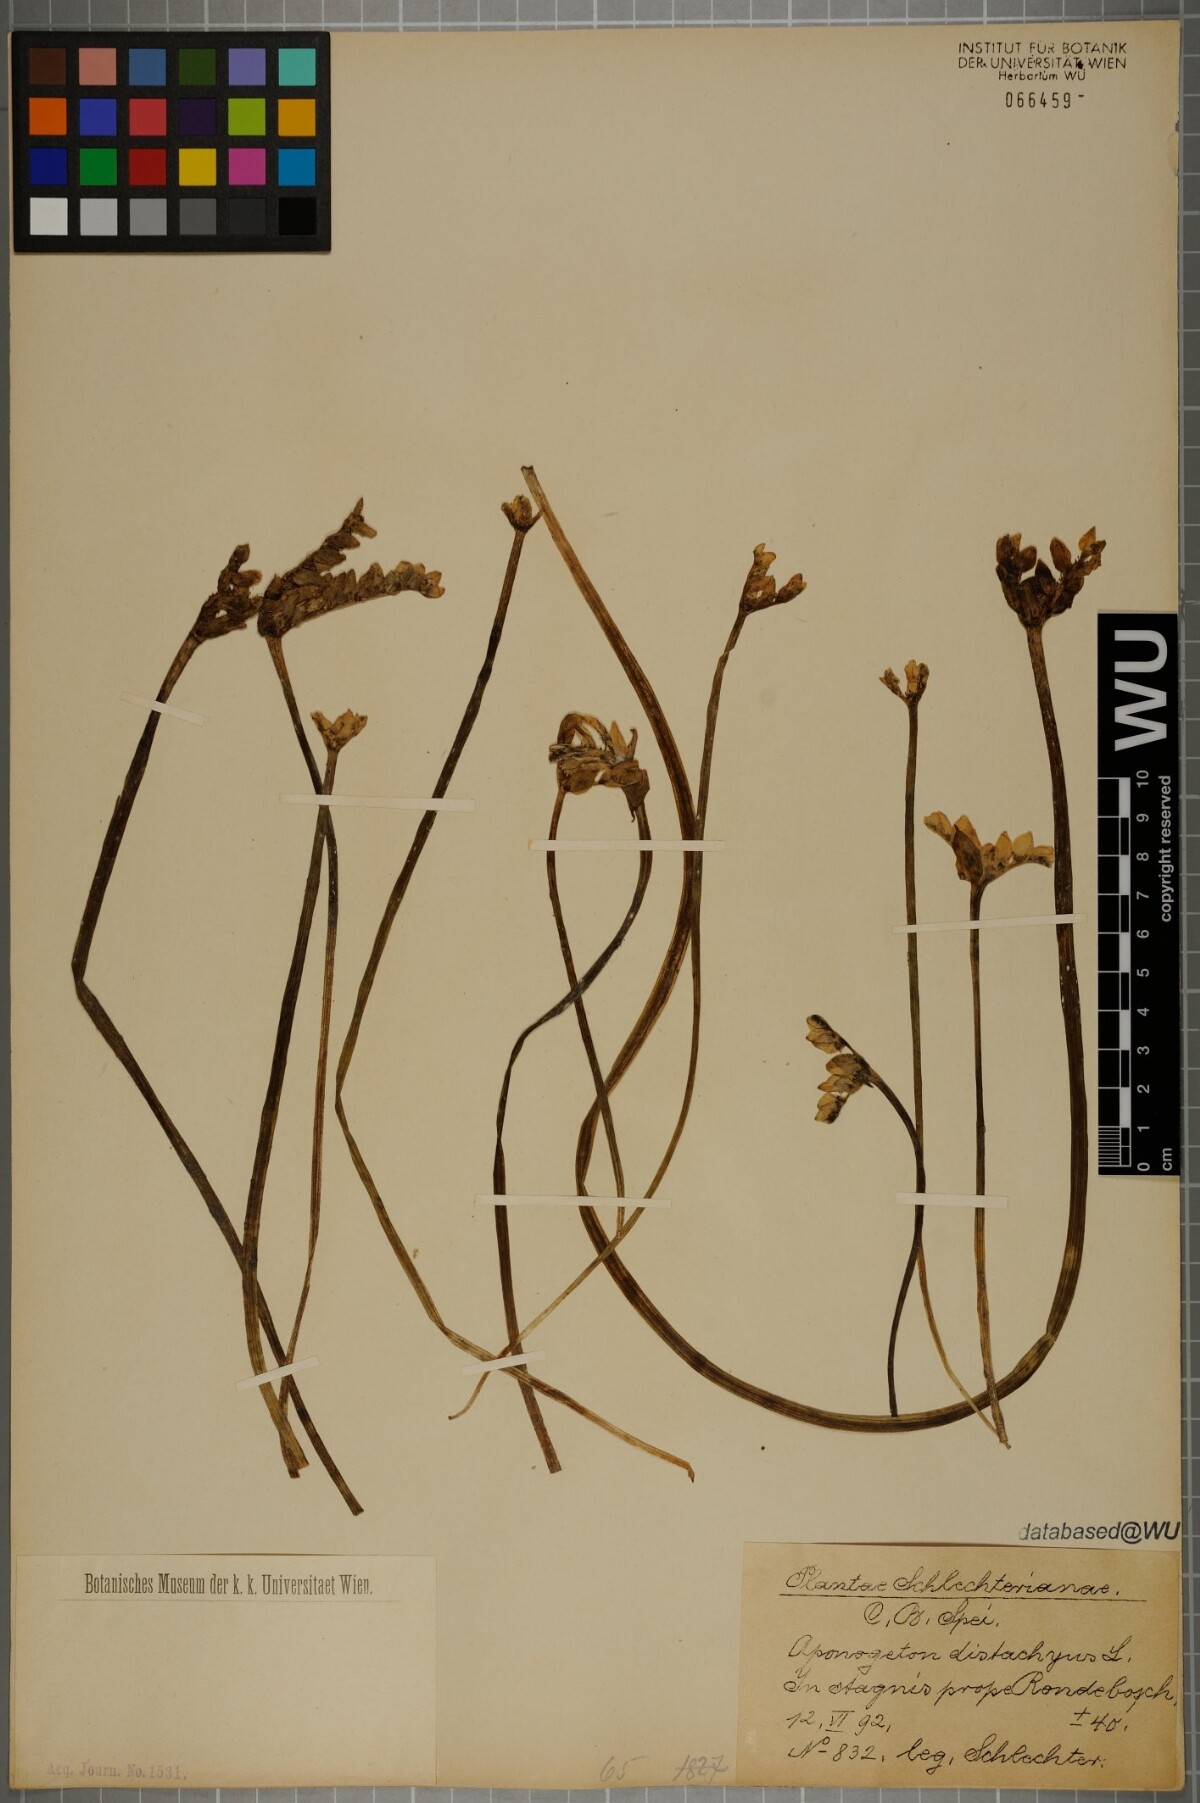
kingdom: Plantae
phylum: Tracheophyta
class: Liliopsida
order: Alismatales
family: Aponogetonaceae
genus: Aponogeton
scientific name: Aponogeton distachyos
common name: Cape-pondweed
